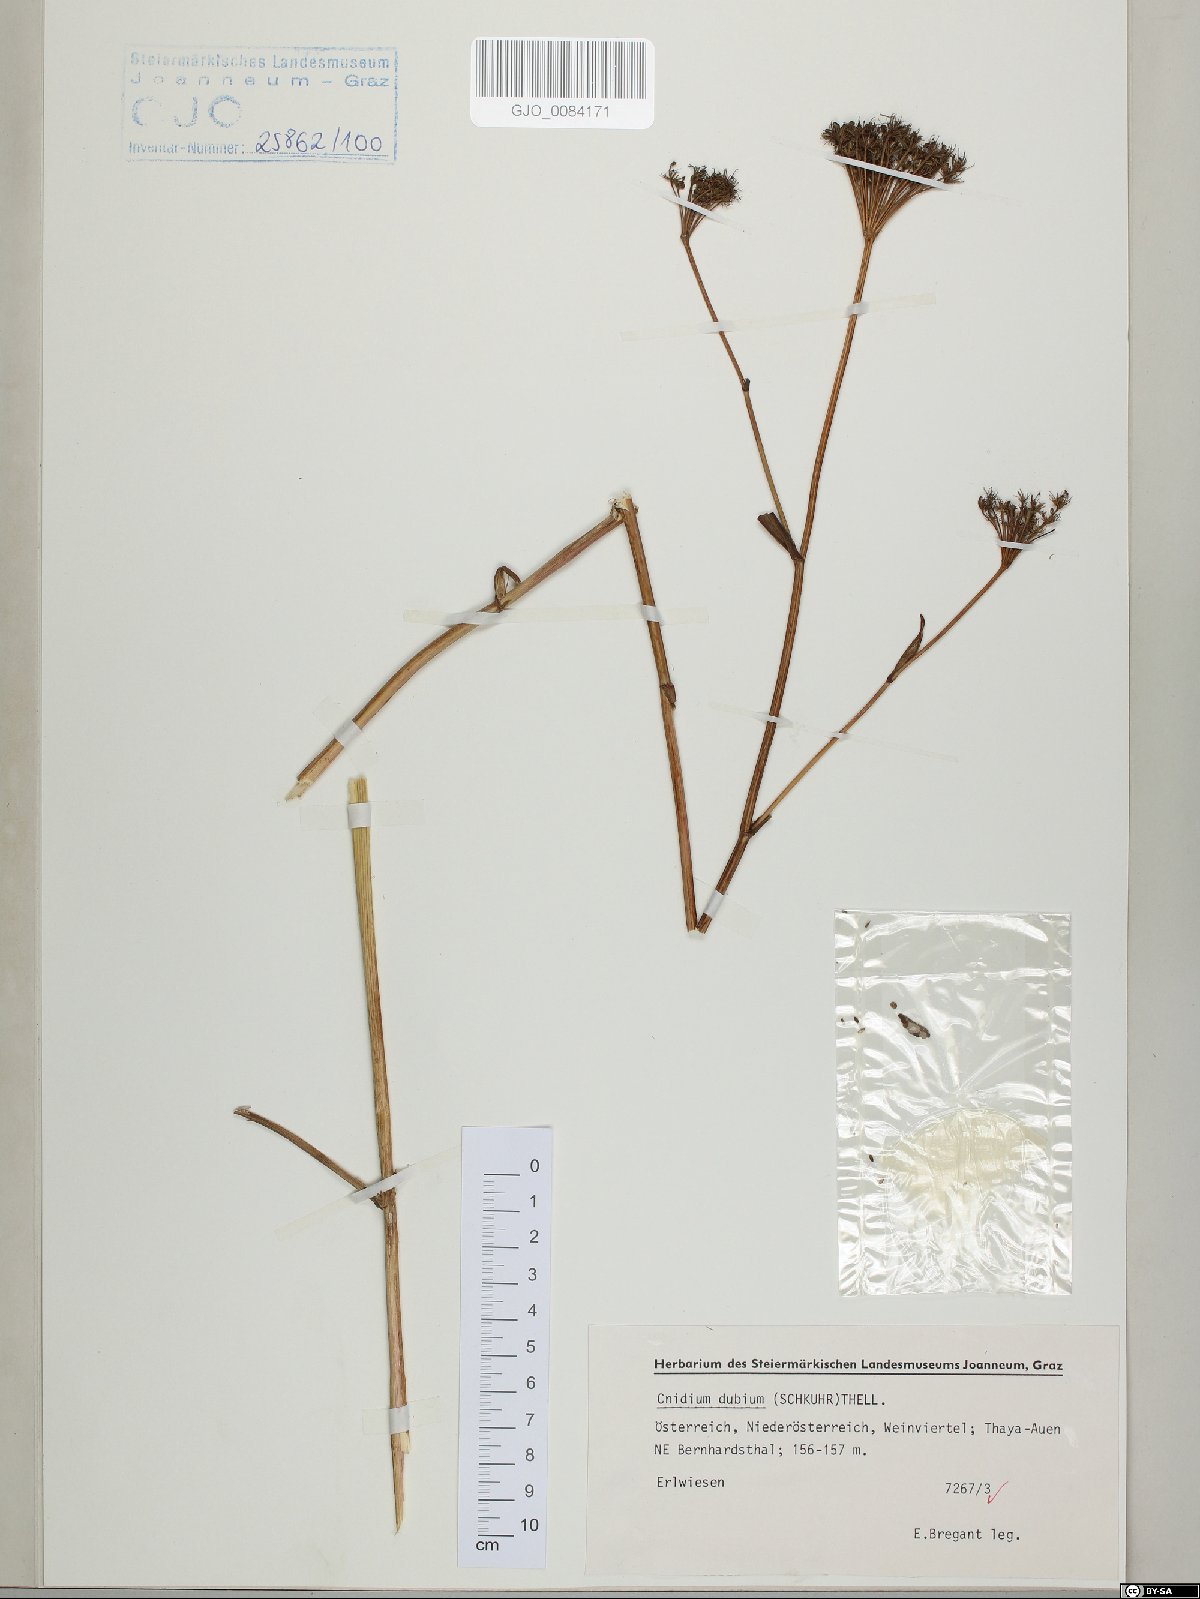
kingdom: Plantae
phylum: Tracheophyta
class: Magnoliopsida
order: Apiales
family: Apiaceae
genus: Kadenia
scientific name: Kadenia dubia
